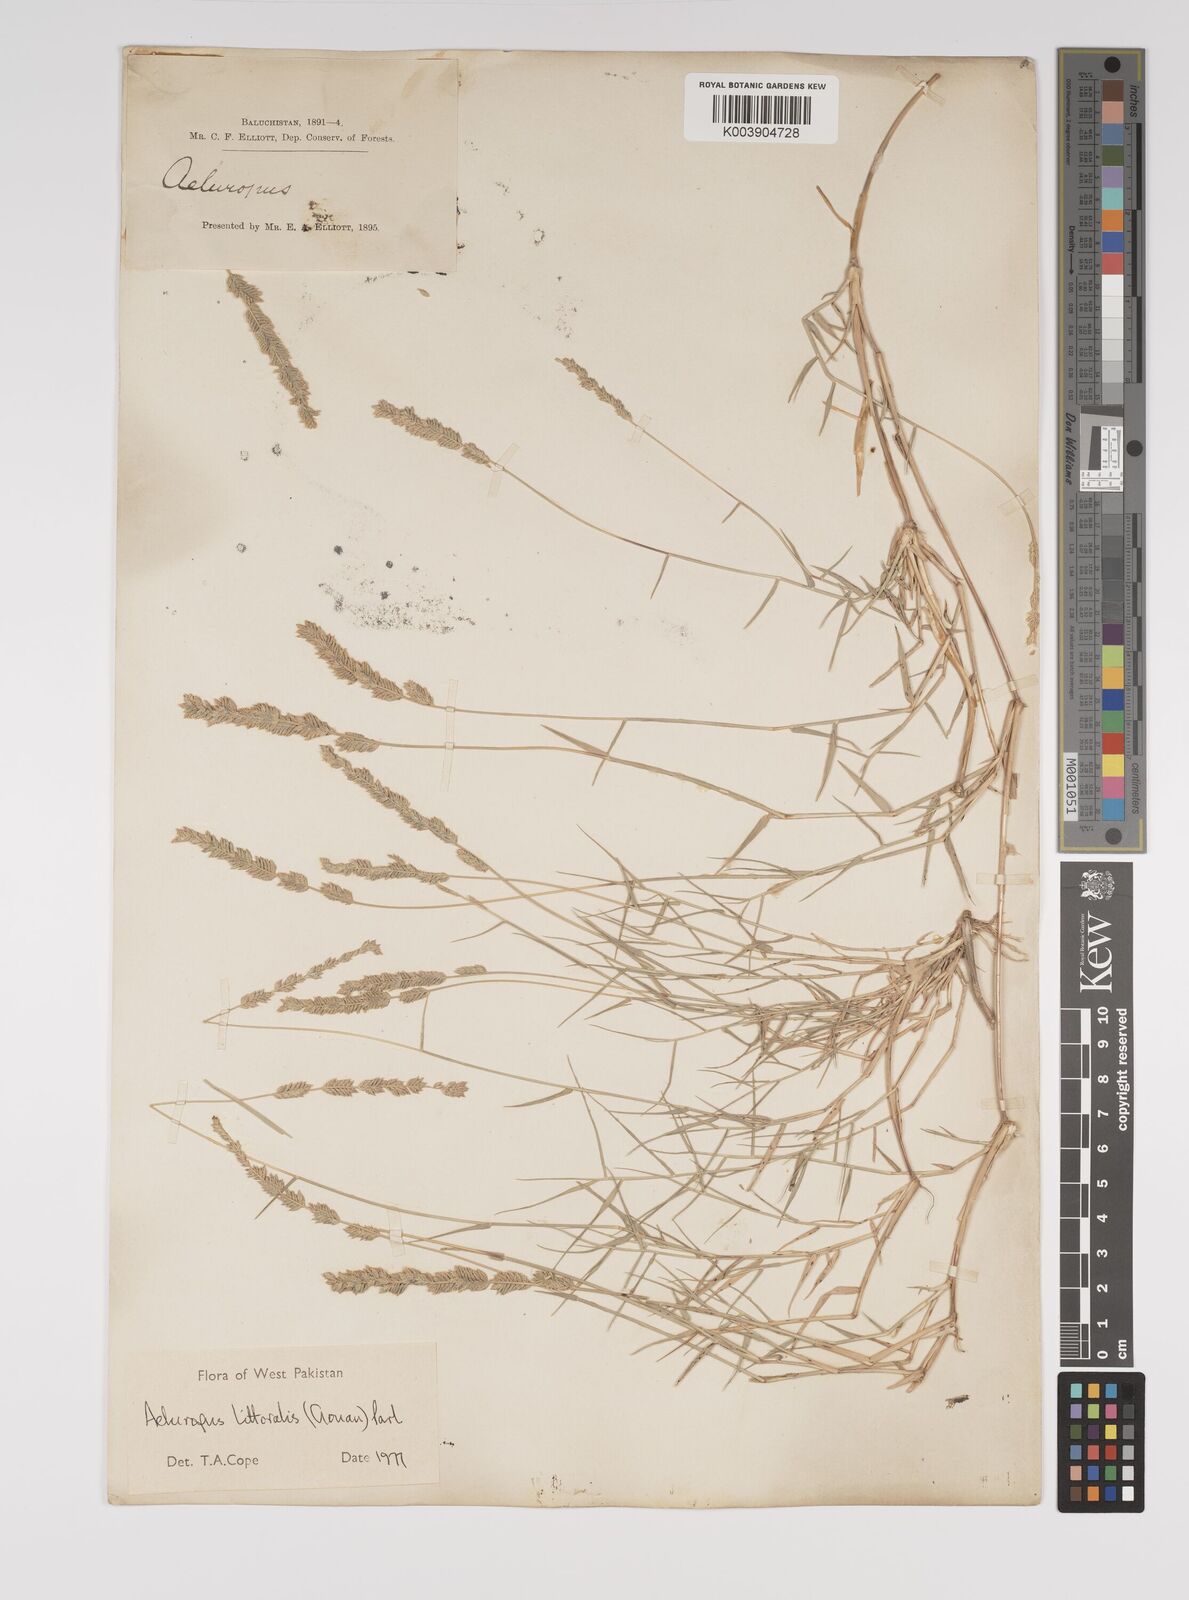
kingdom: Plantae
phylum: Tracheophyta
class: Liliopsida
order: Poales
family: Poaceae
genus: Aeluropus
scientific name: Aeluropus littoralis
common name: Indian walnut
